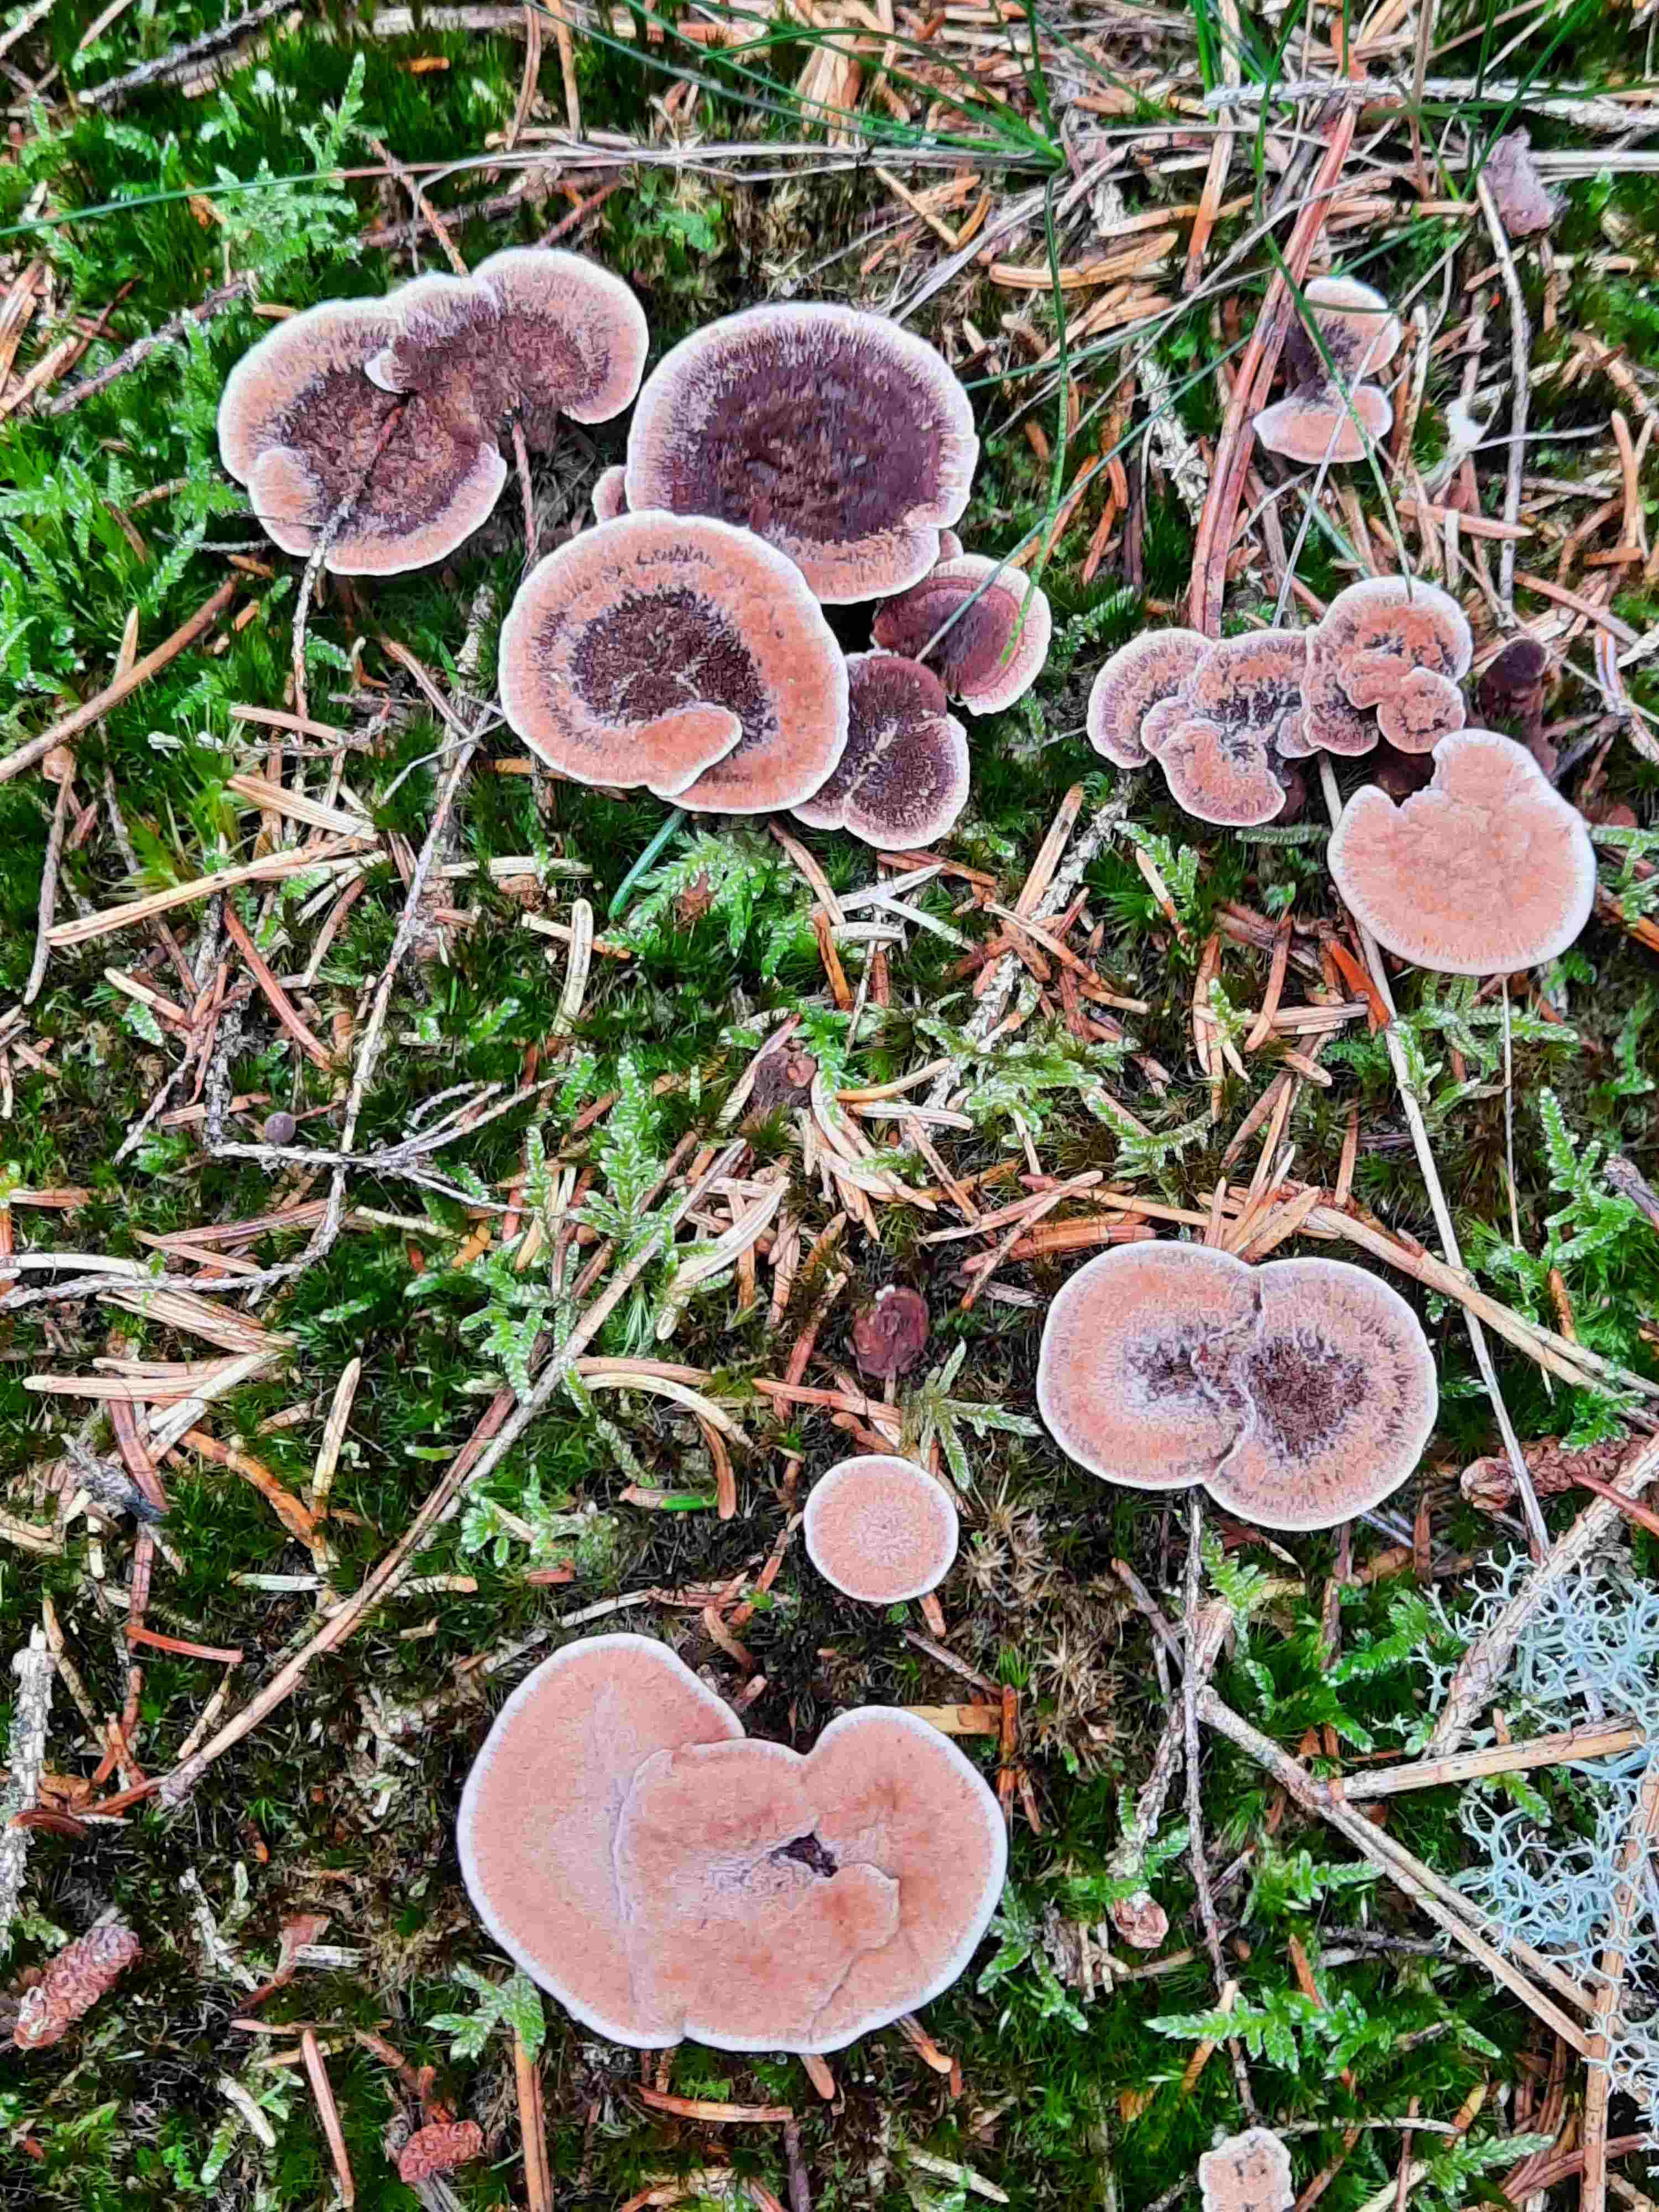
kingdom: Fungi
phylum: Basidiomycota
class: Agaricomycetes
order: Thelephorales
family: Bankeraceae
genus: Hydnellum
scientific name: Hydnellum cumulatum
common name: Rosette tooth
